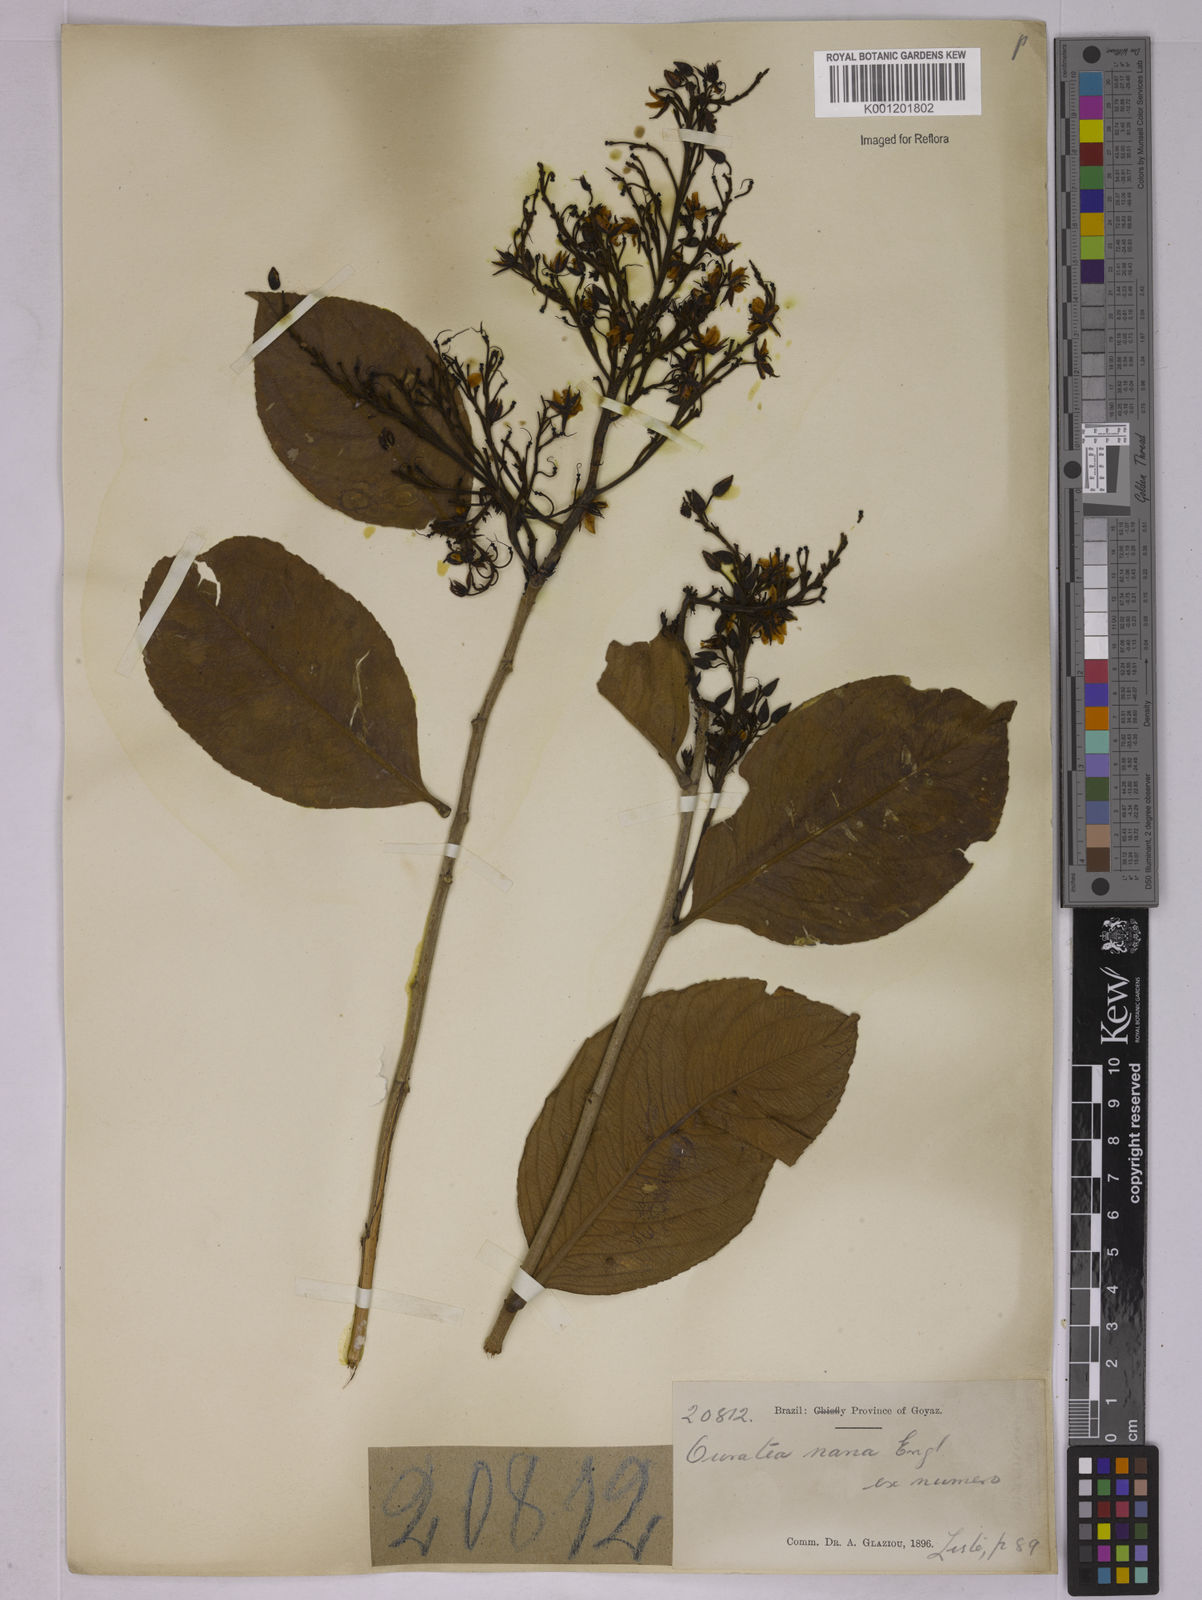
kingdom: Plantae
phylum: Tracheophyta
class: Magnoliopsida
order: Malpighiales
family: Ochnaceae
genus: Ouratea
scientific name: Ouratea nana
